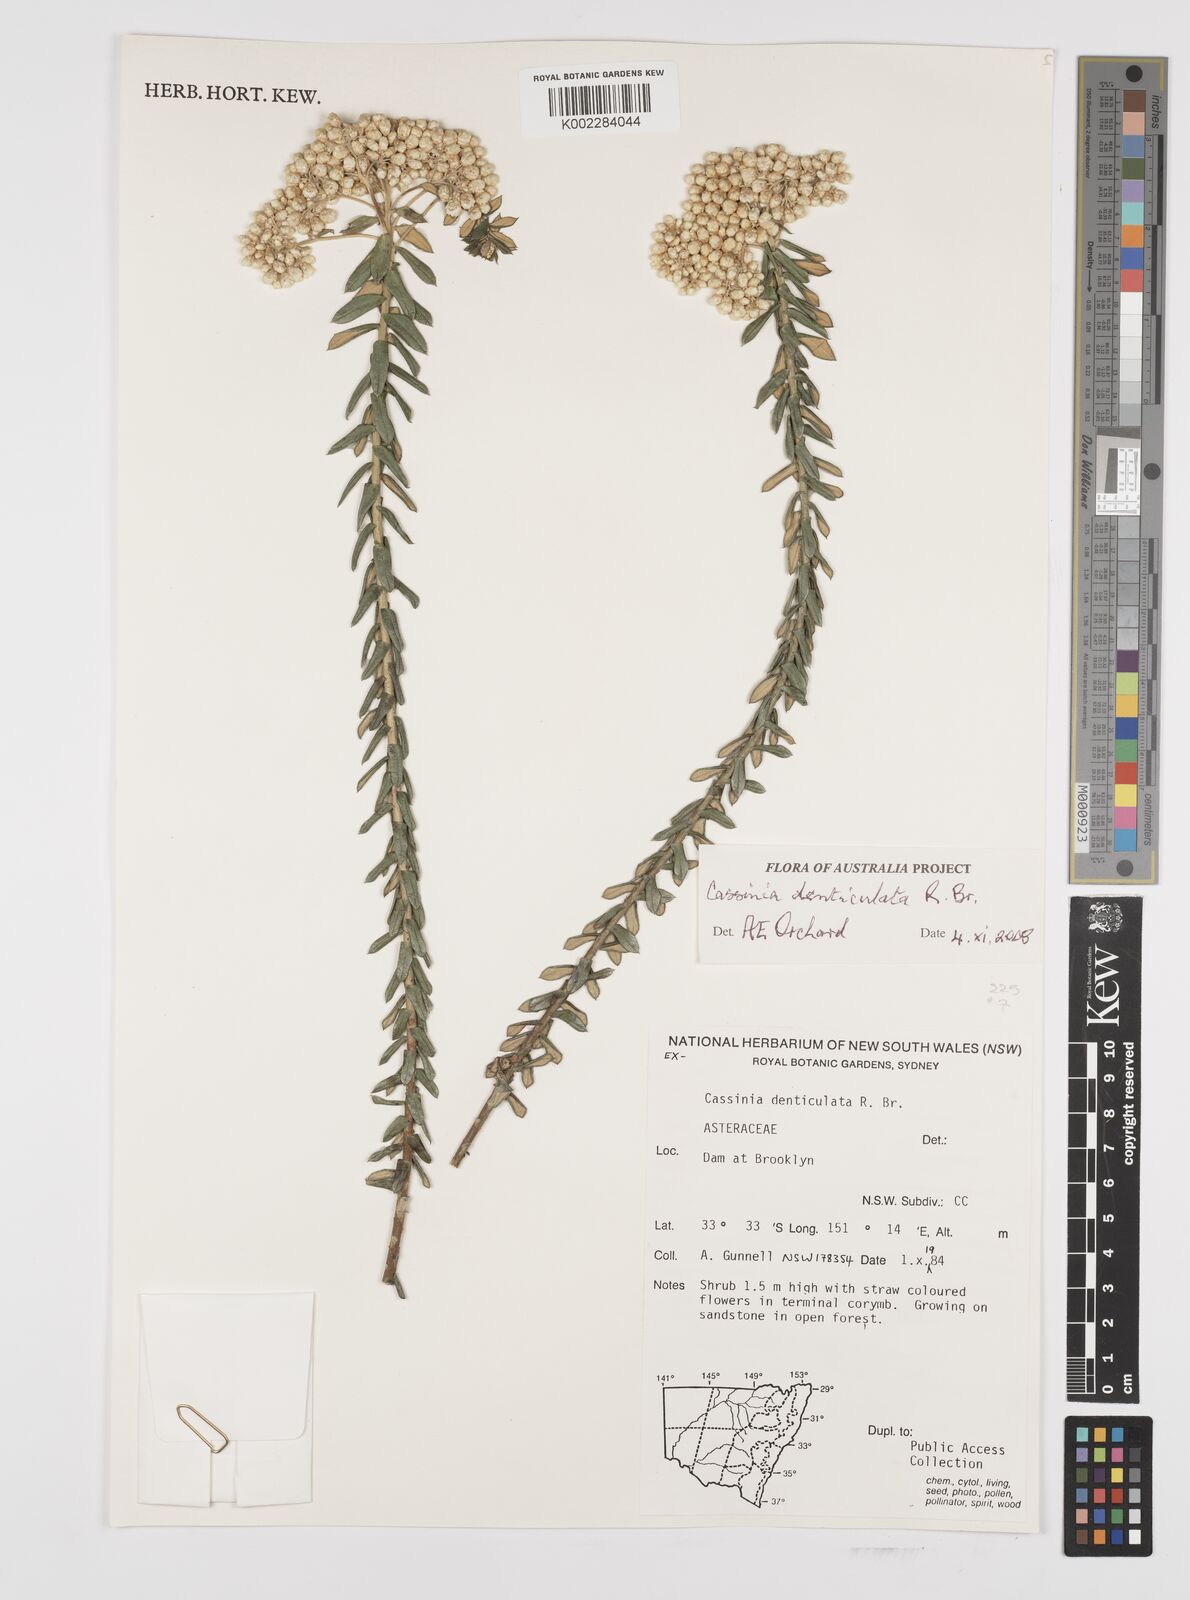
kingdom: Plantae
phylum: Tracheophyta
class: Magnoliopsida
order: Asterales
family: Asteraceae
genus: Cassinia
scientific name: Cassinia denticulata
